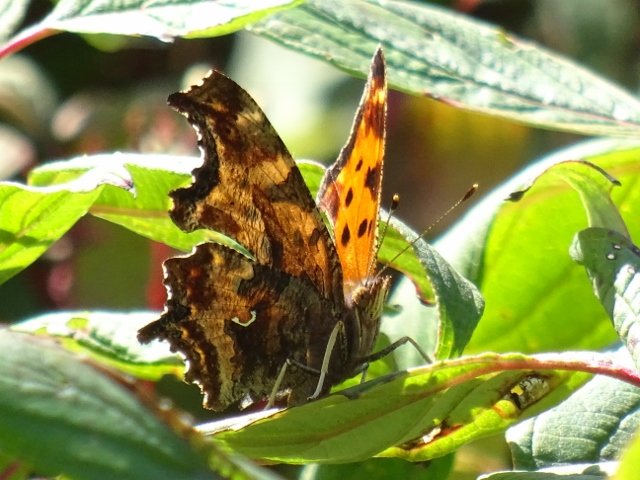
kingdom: Animalia
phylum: Arthropoda
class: Insecta
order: Lepidoptera
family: Nymphalidae
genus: Polygonia
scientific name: Polygonia comma
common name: Eastern Comma
